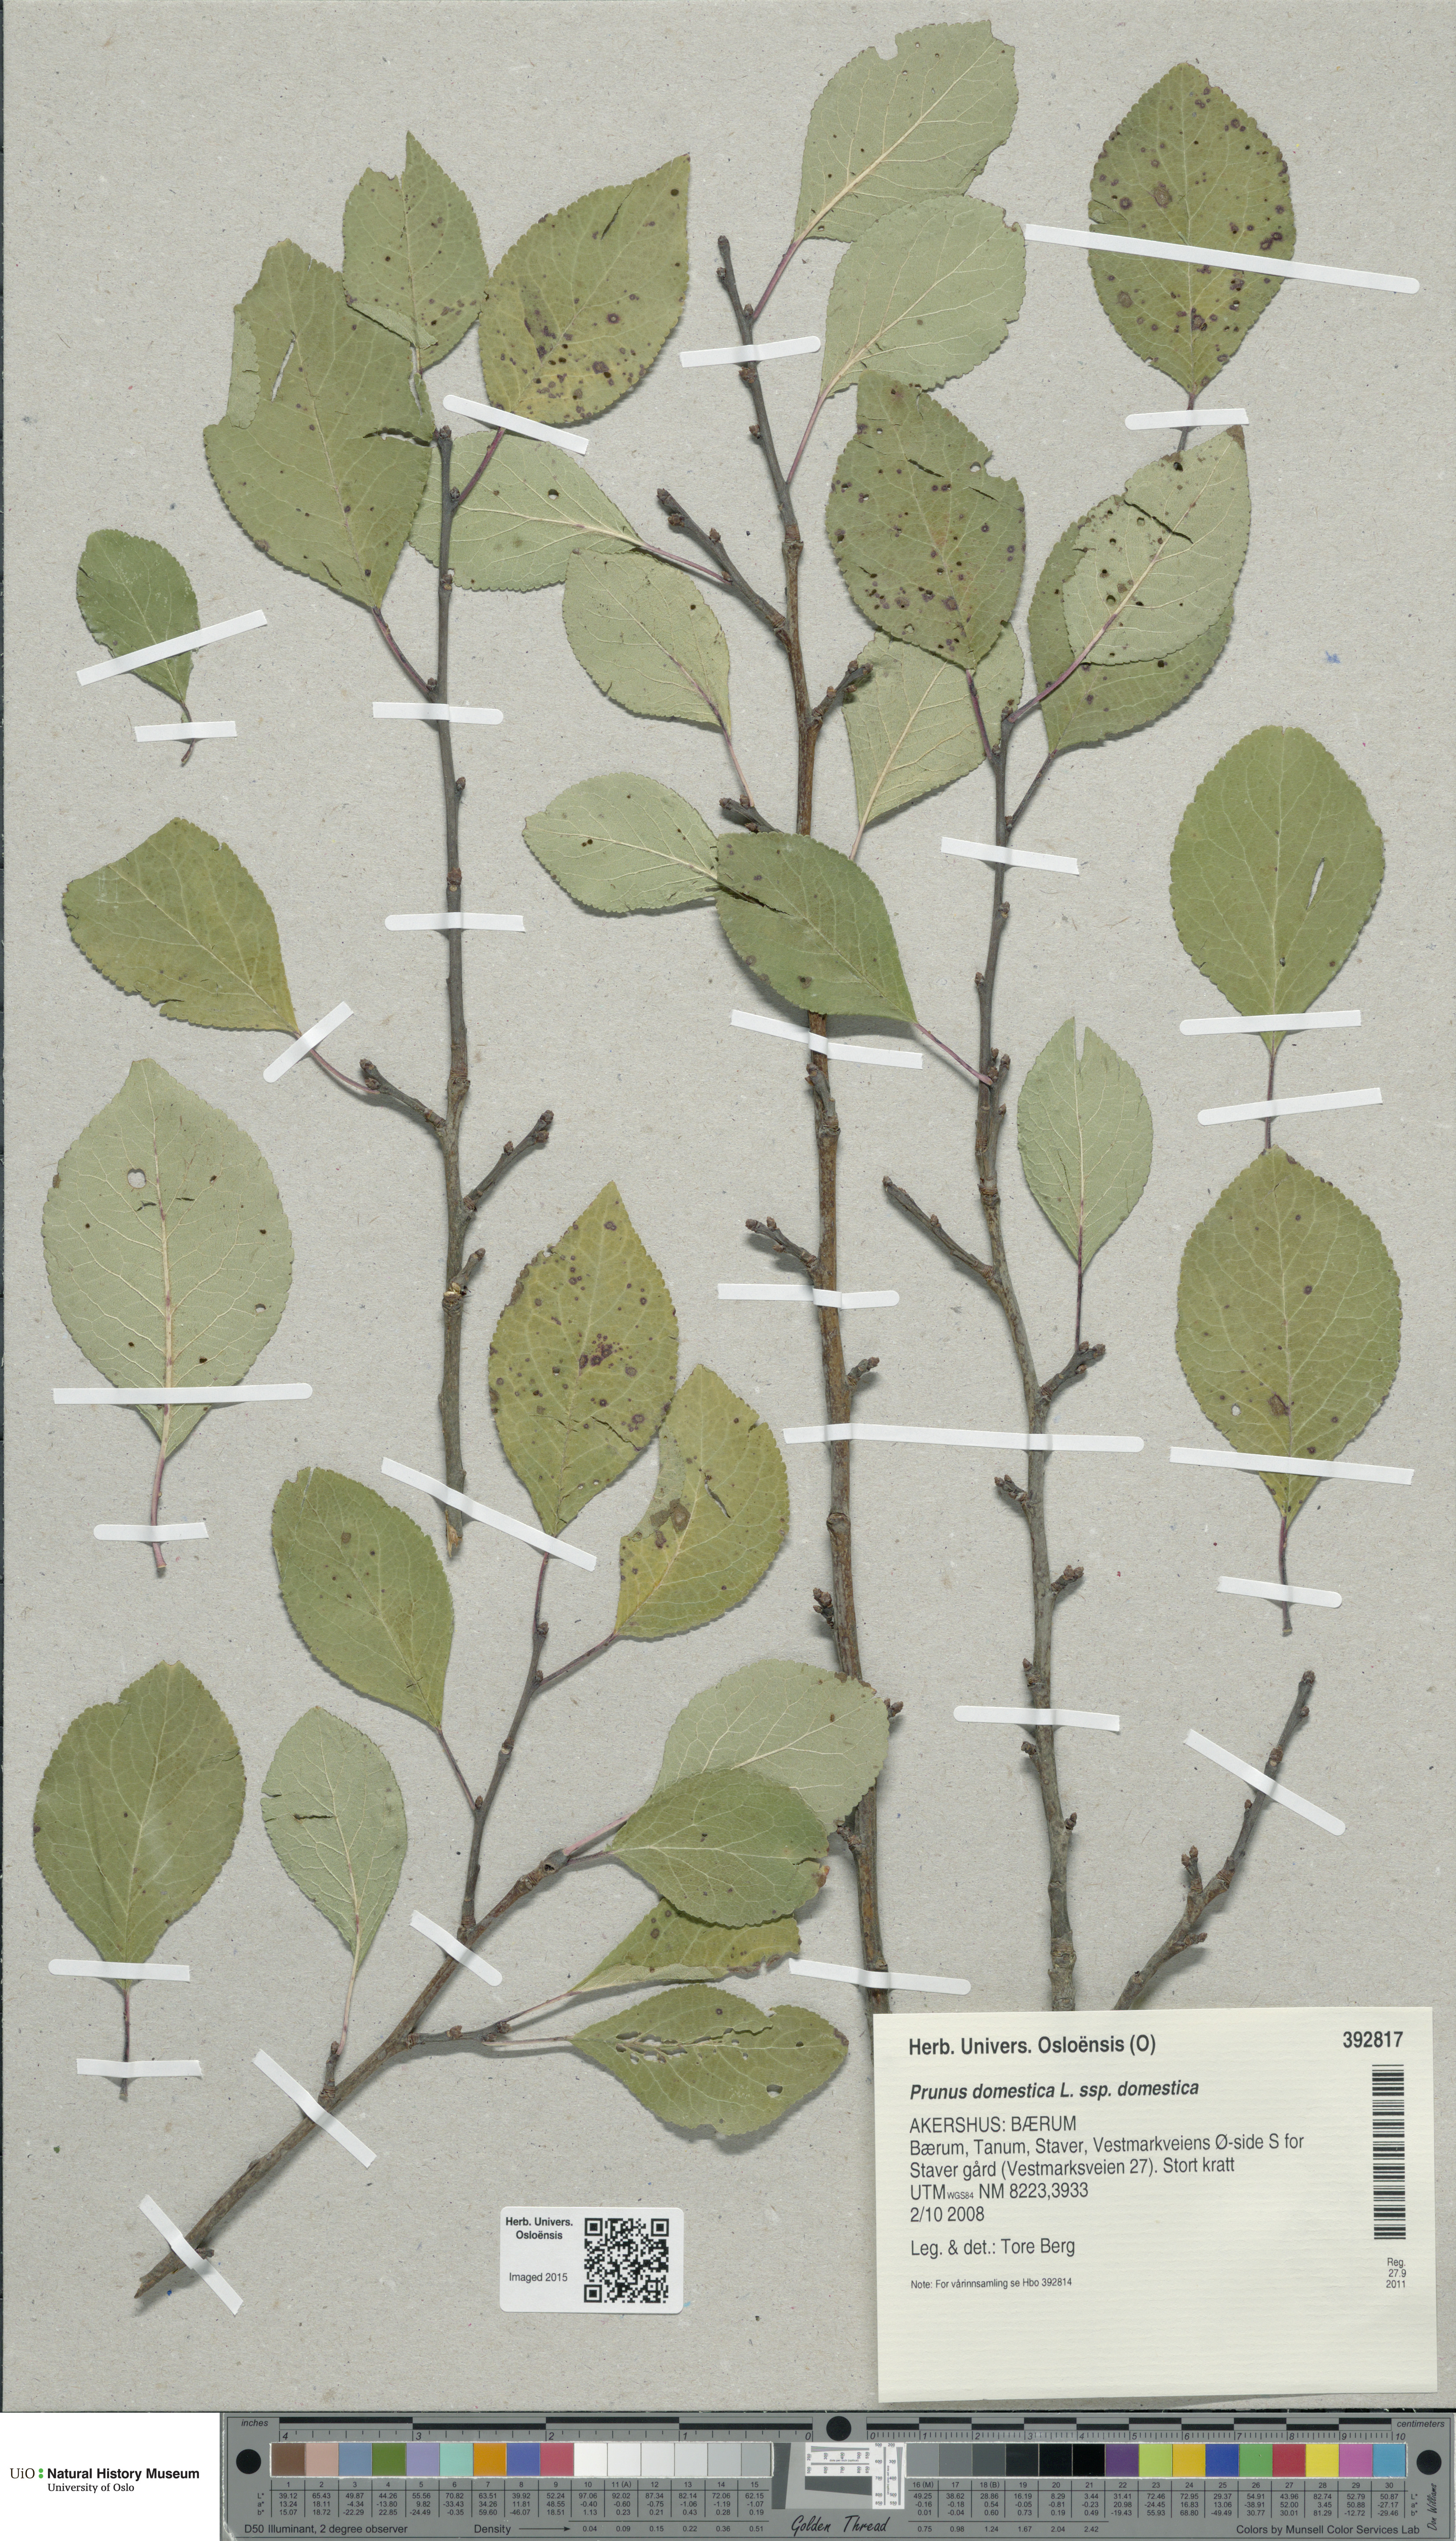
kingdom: Plantae
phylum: Tracheophyta
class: Magnoliopsida
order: Rosales
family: Rosaceae
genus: Prunus
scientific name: Prunus domestica
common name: Wild plum
